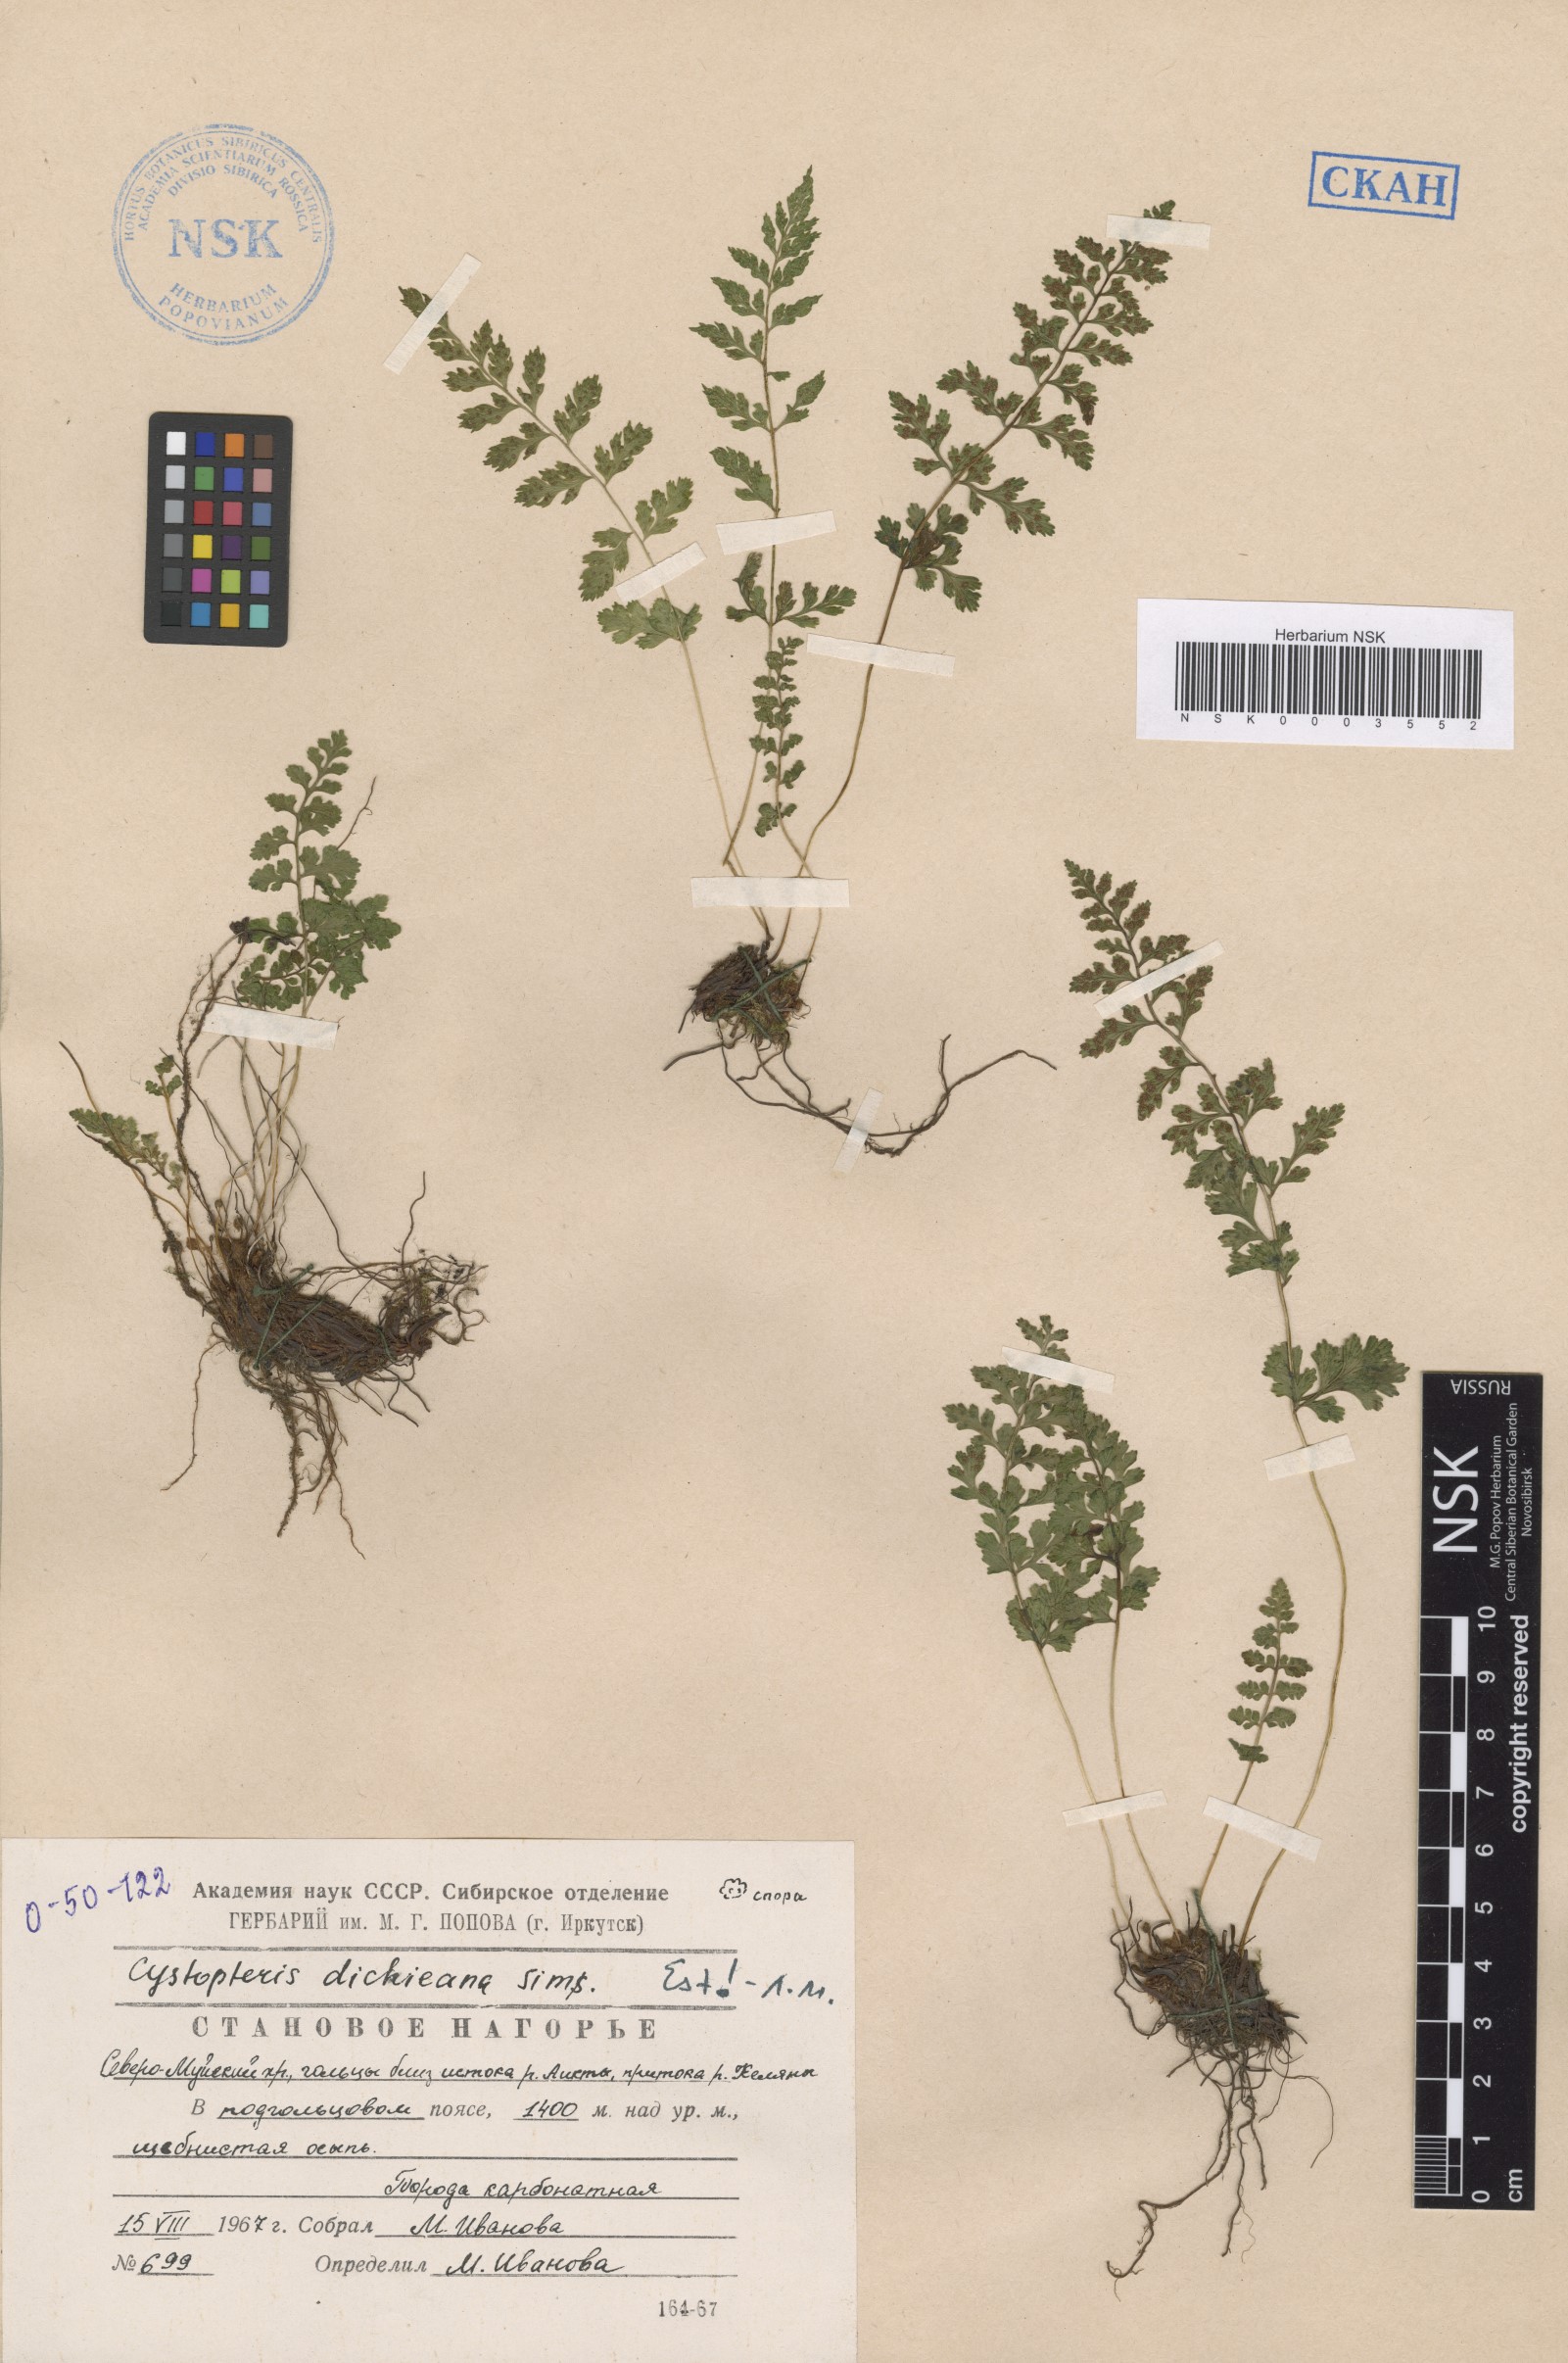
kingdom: Plantae
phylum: Tracheophyta
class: Polypodiopsida
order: Polypodiales
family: Cystopteridaceae
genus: Cystopteris
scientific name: Cystopteris dickieana
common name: Dickie's bladder-fern
